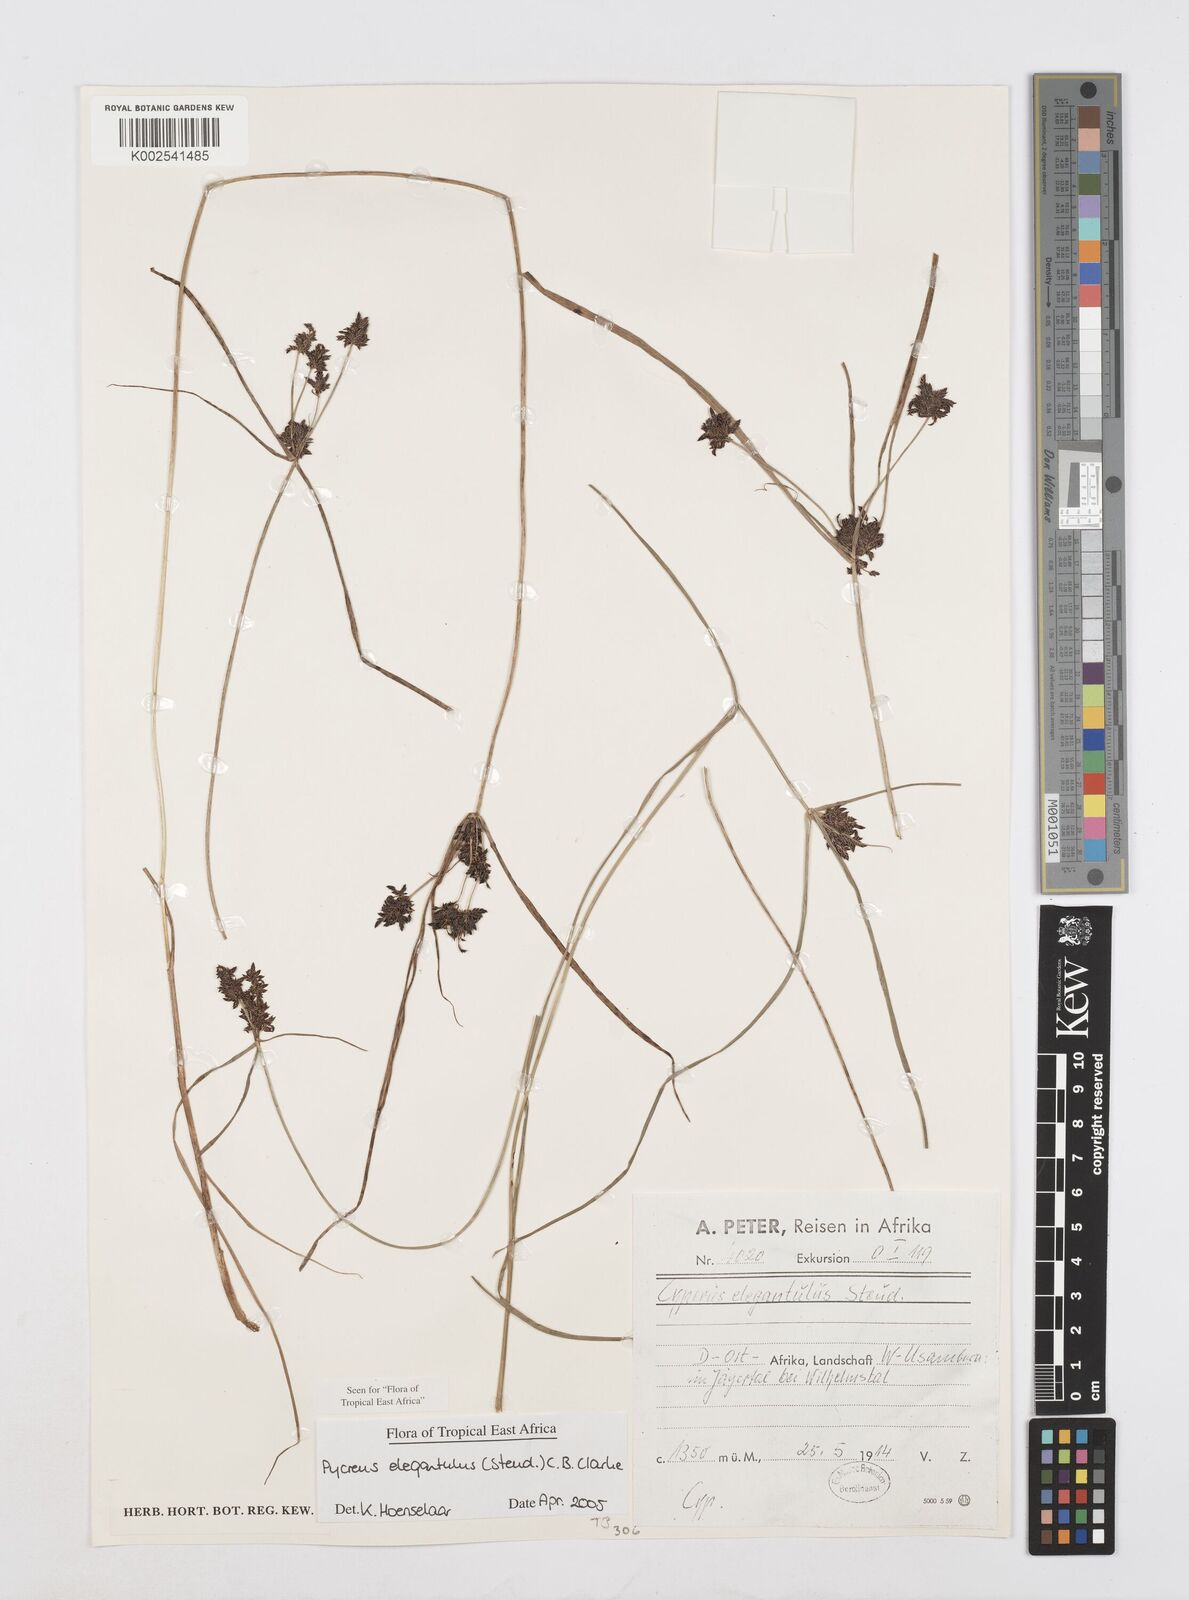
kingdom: Plantae
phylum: Tracheophyta
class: Liliopsida
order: Poales
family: Cyperaceae
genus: Cyperus
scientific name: Cyperus elegantulus
